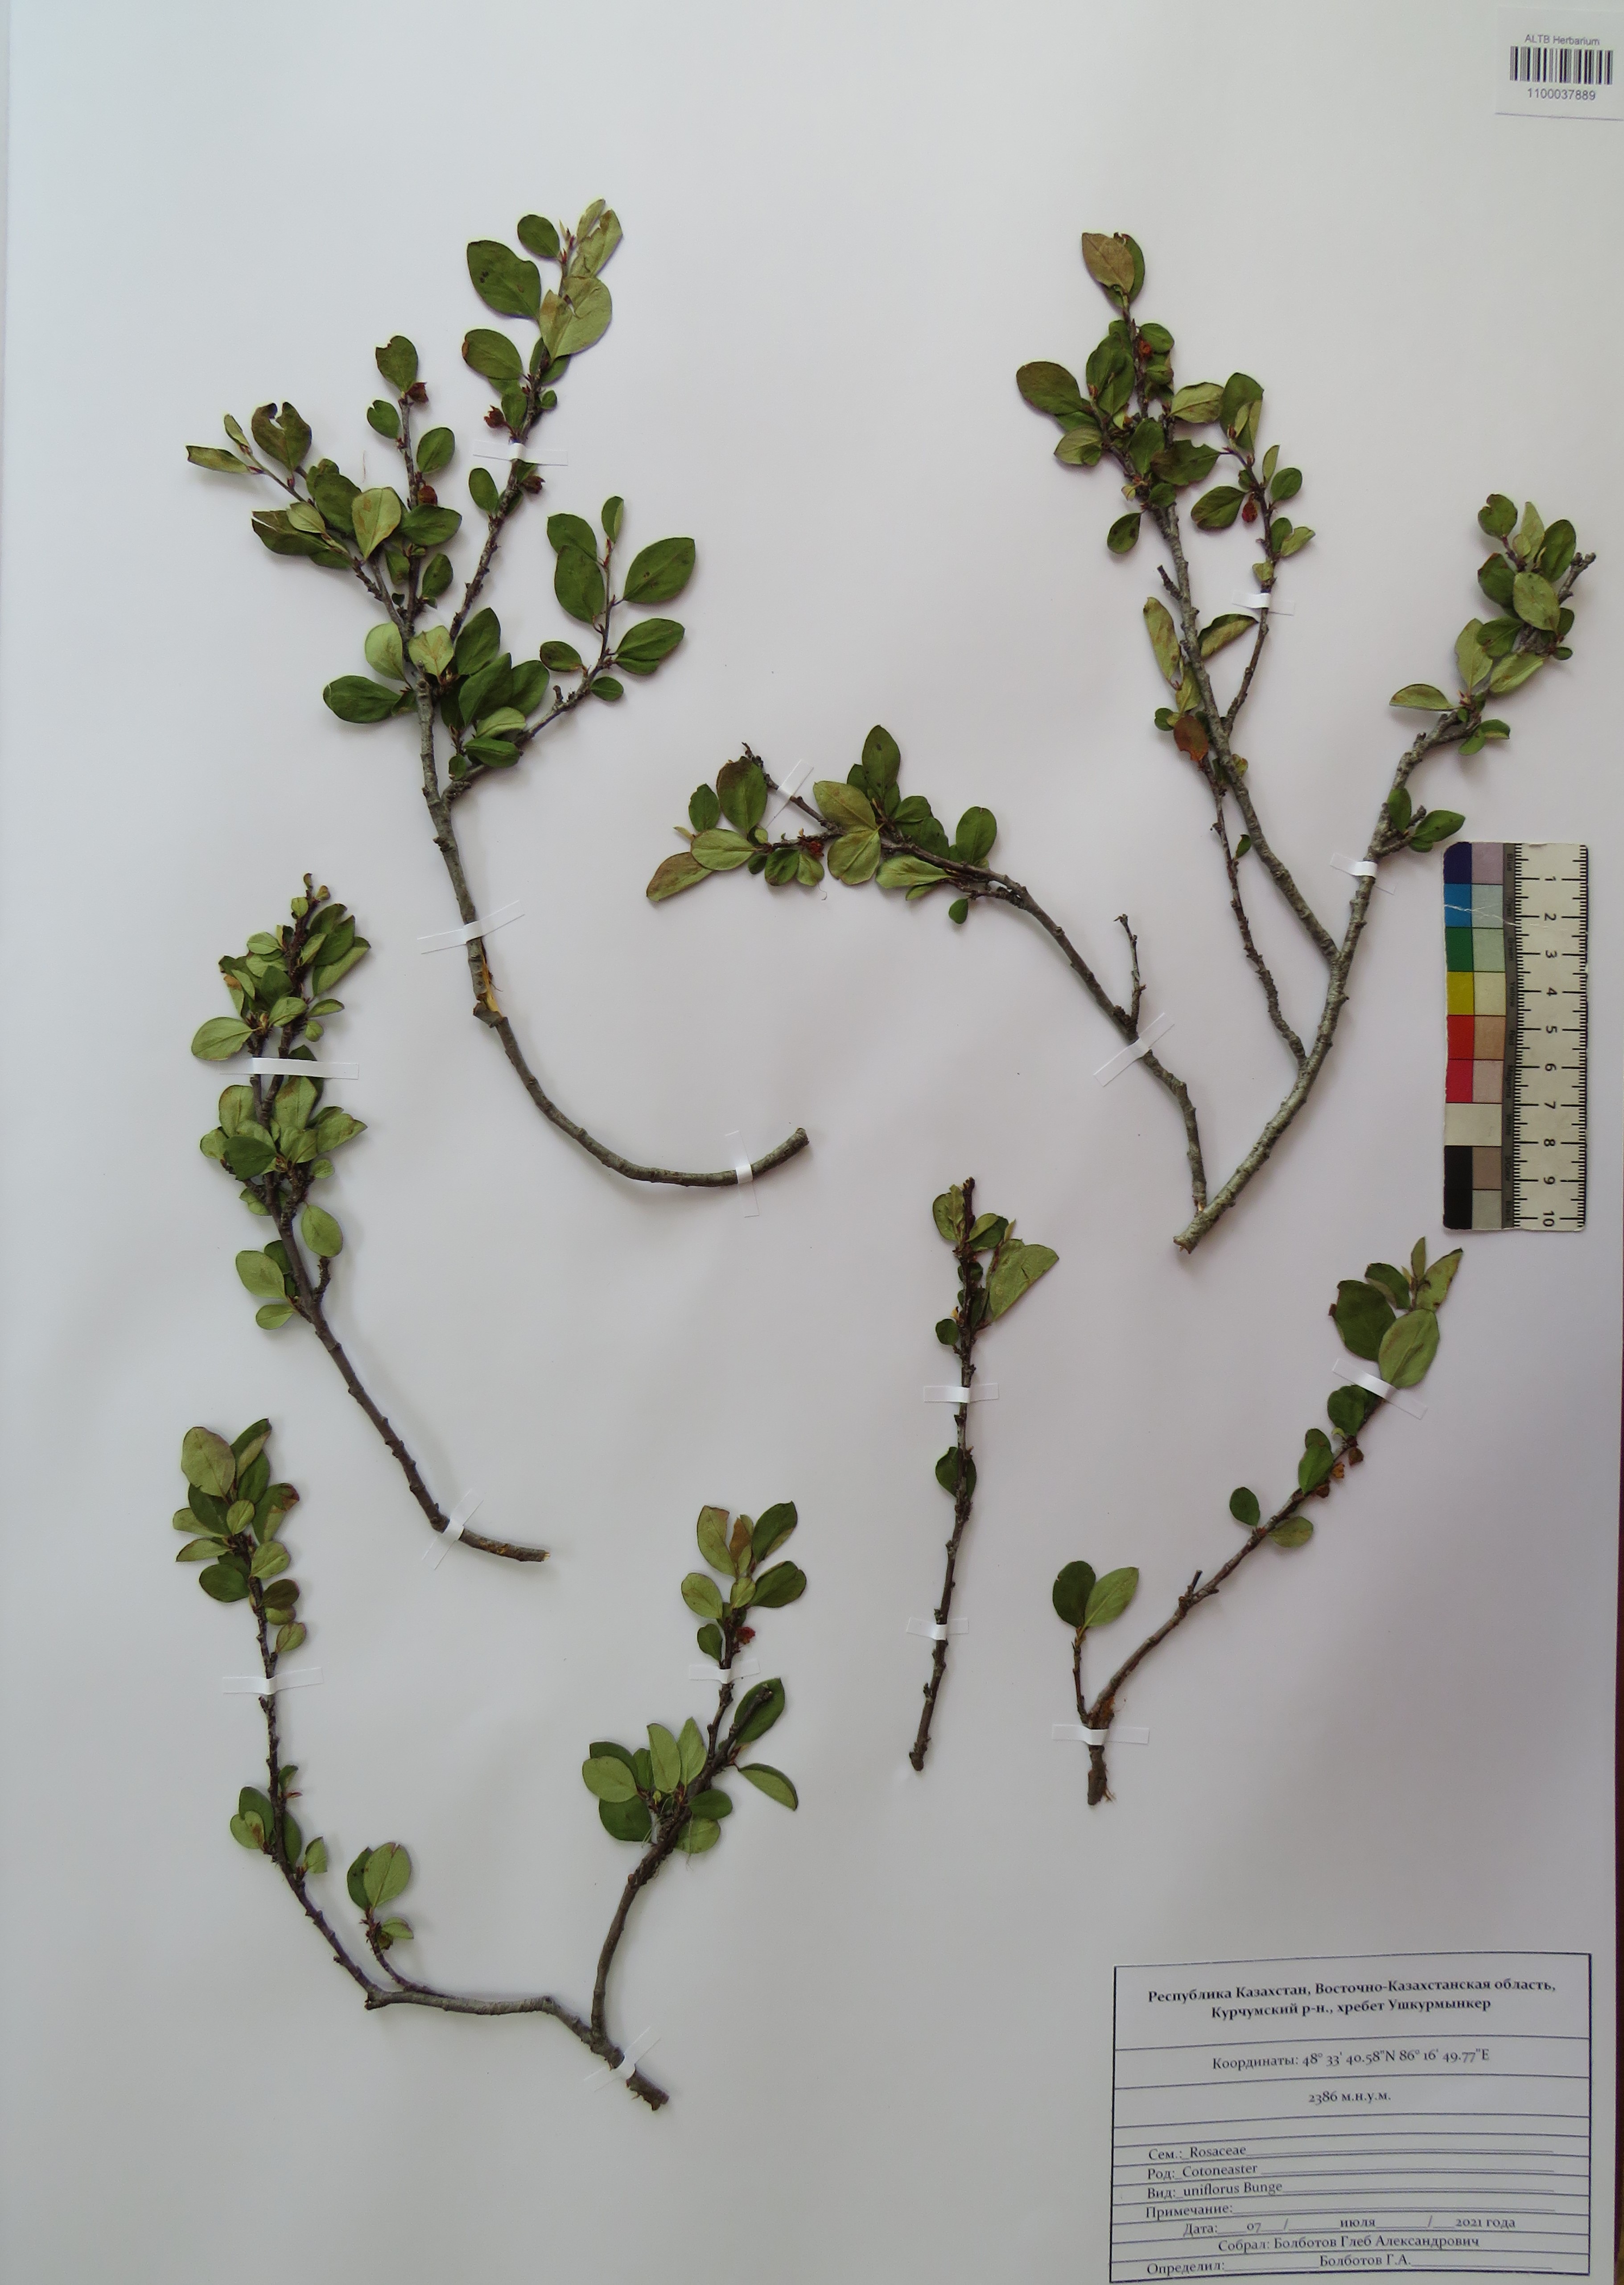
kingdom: Plantae
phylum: Tracheophyta
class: Magnoliopsida
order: Rosales
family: Rosaceae
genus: Cotoneaster
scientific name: Cotoneaster uniflorus
